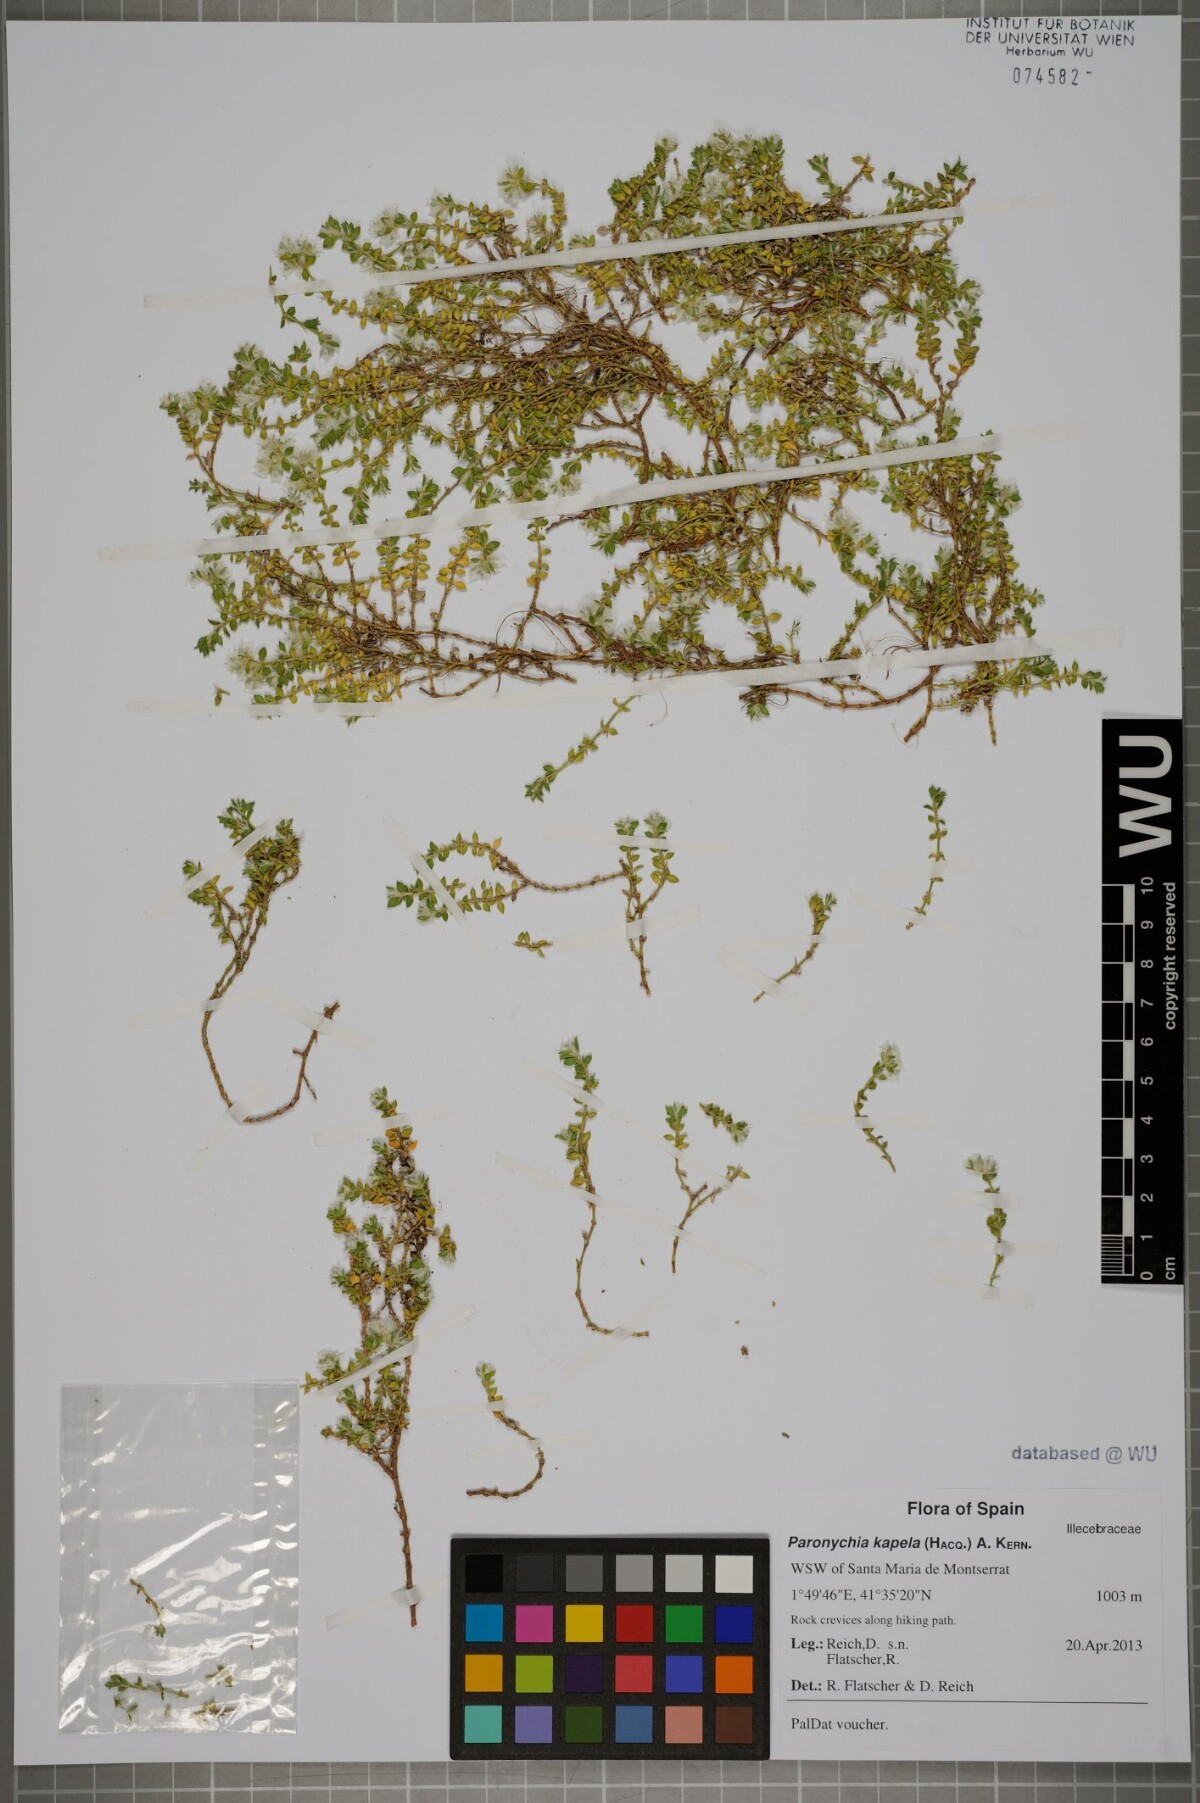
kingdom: Plantae
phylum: Tracheophyta
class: Magnoliopsida
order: Caryophyllales
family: Caryophyllaceae
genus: Paronychia
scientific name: Paronychia kapela
